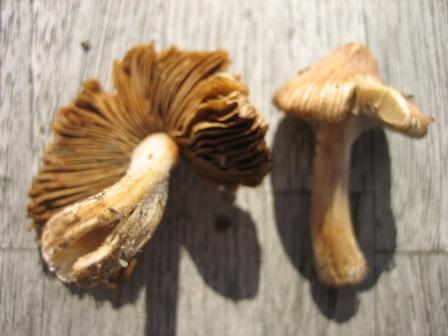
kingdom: Fungi
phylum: Basidiomycota
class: Agaricomycetes
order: Agaricales
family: Inocybaceae
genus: Pseudosperma
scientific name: Pseudosperma rimosum
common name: gulbladet trævlhat
